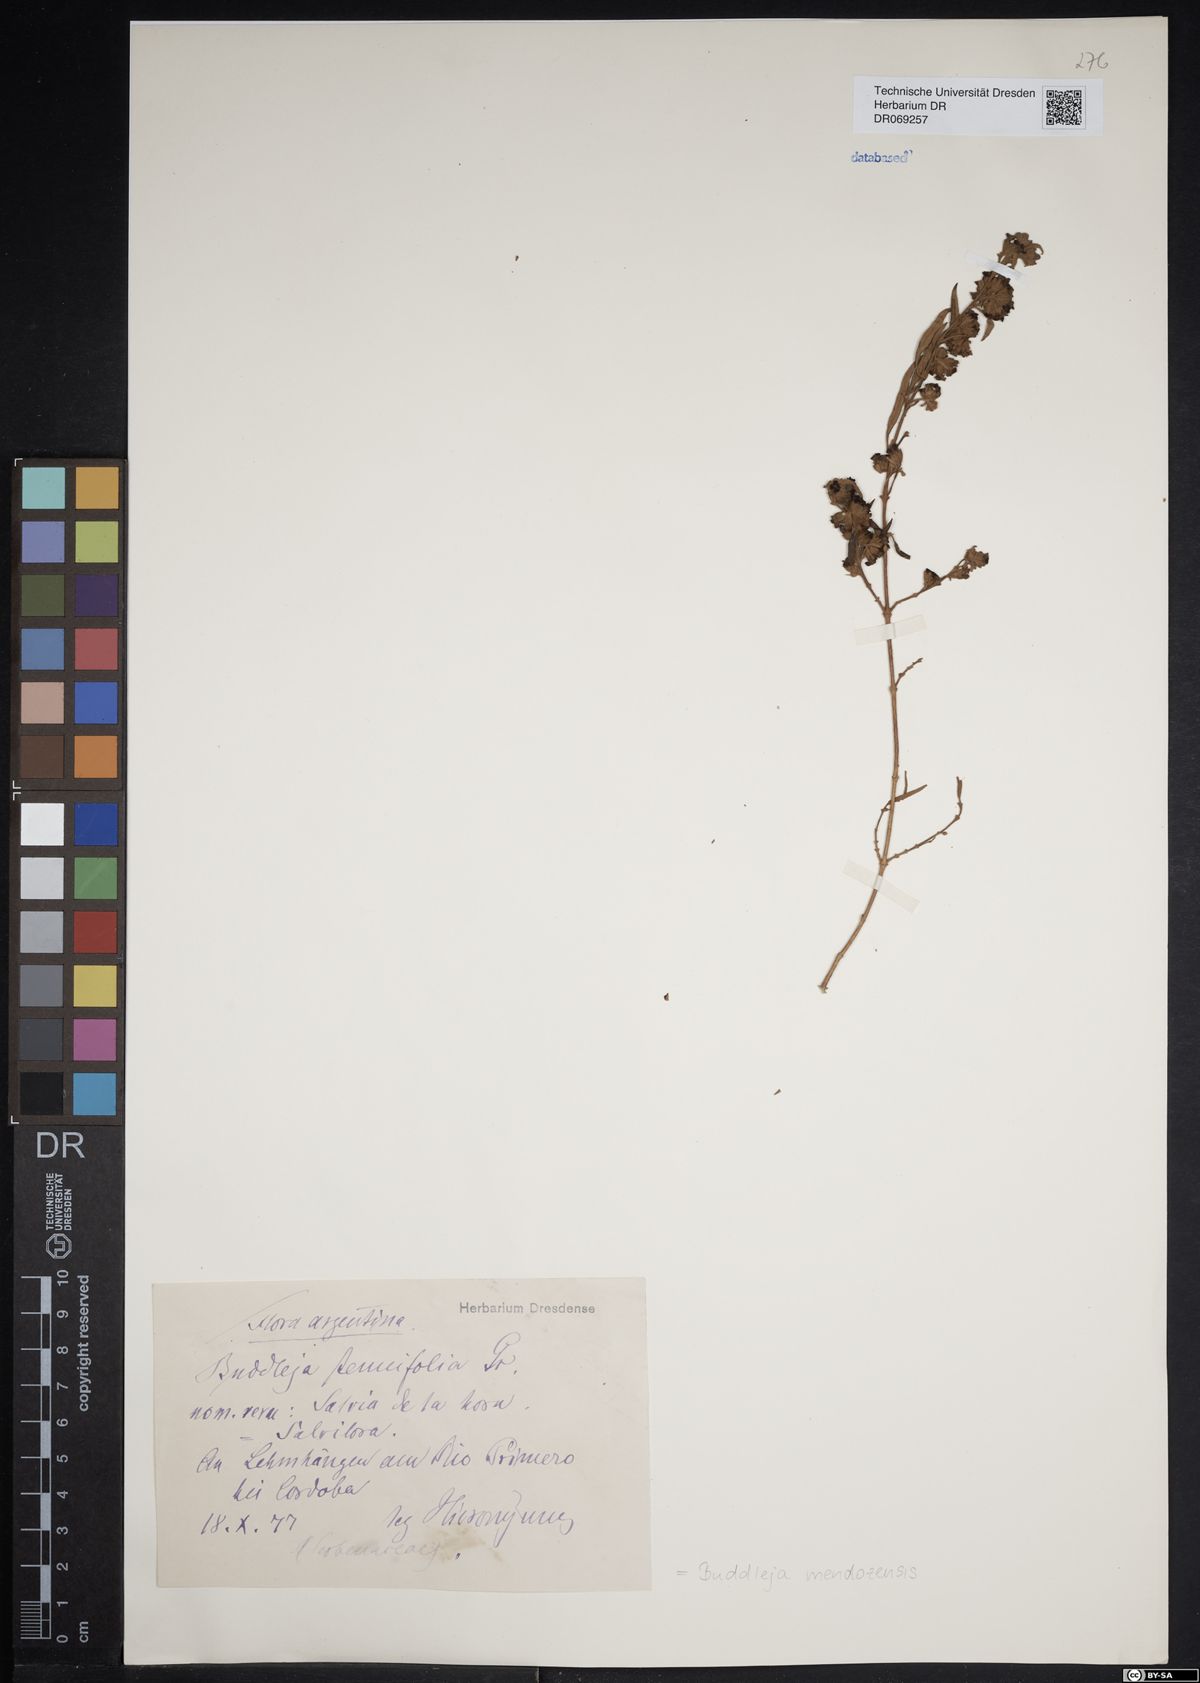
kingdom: Plantae
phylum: Tracheophyta
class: Magnoliopsida
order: Lamiales
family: Scrophulariaceae
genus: Buddleja
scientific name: Buddleja mendozensis
